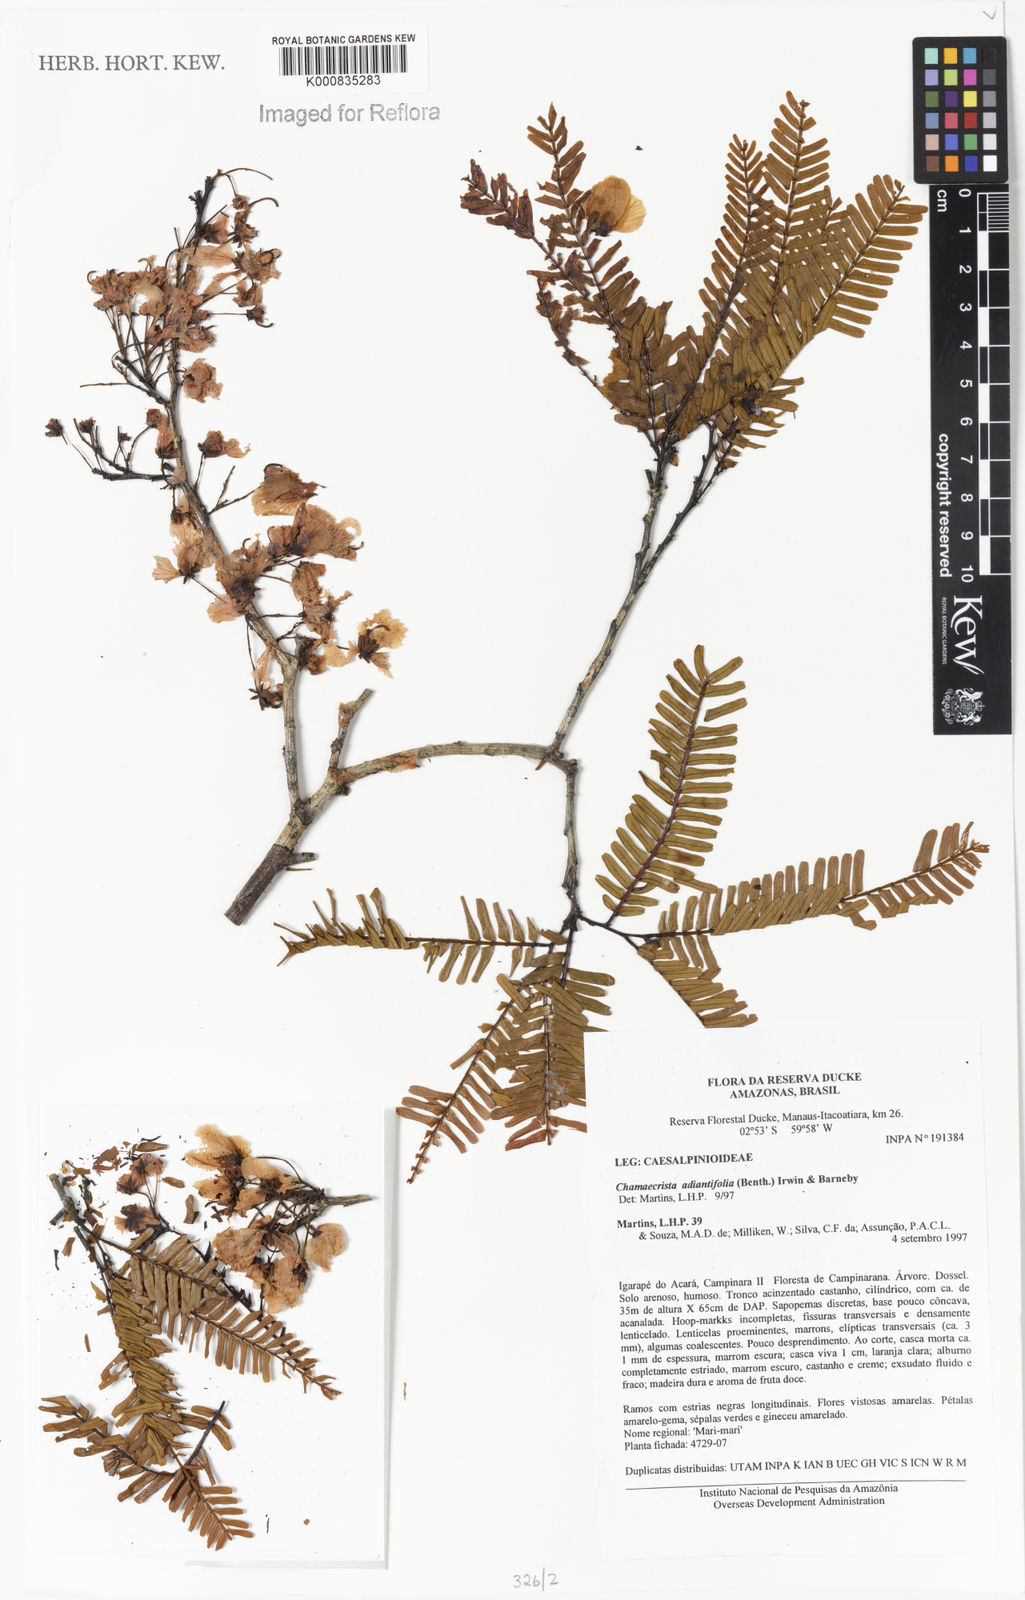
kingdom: Plantae
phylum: Tracheophyta
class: Magnoliopsida
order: Fabales
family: Fabaceae
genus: Chamaecrista
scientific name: Chamaecrista adiantifolia
